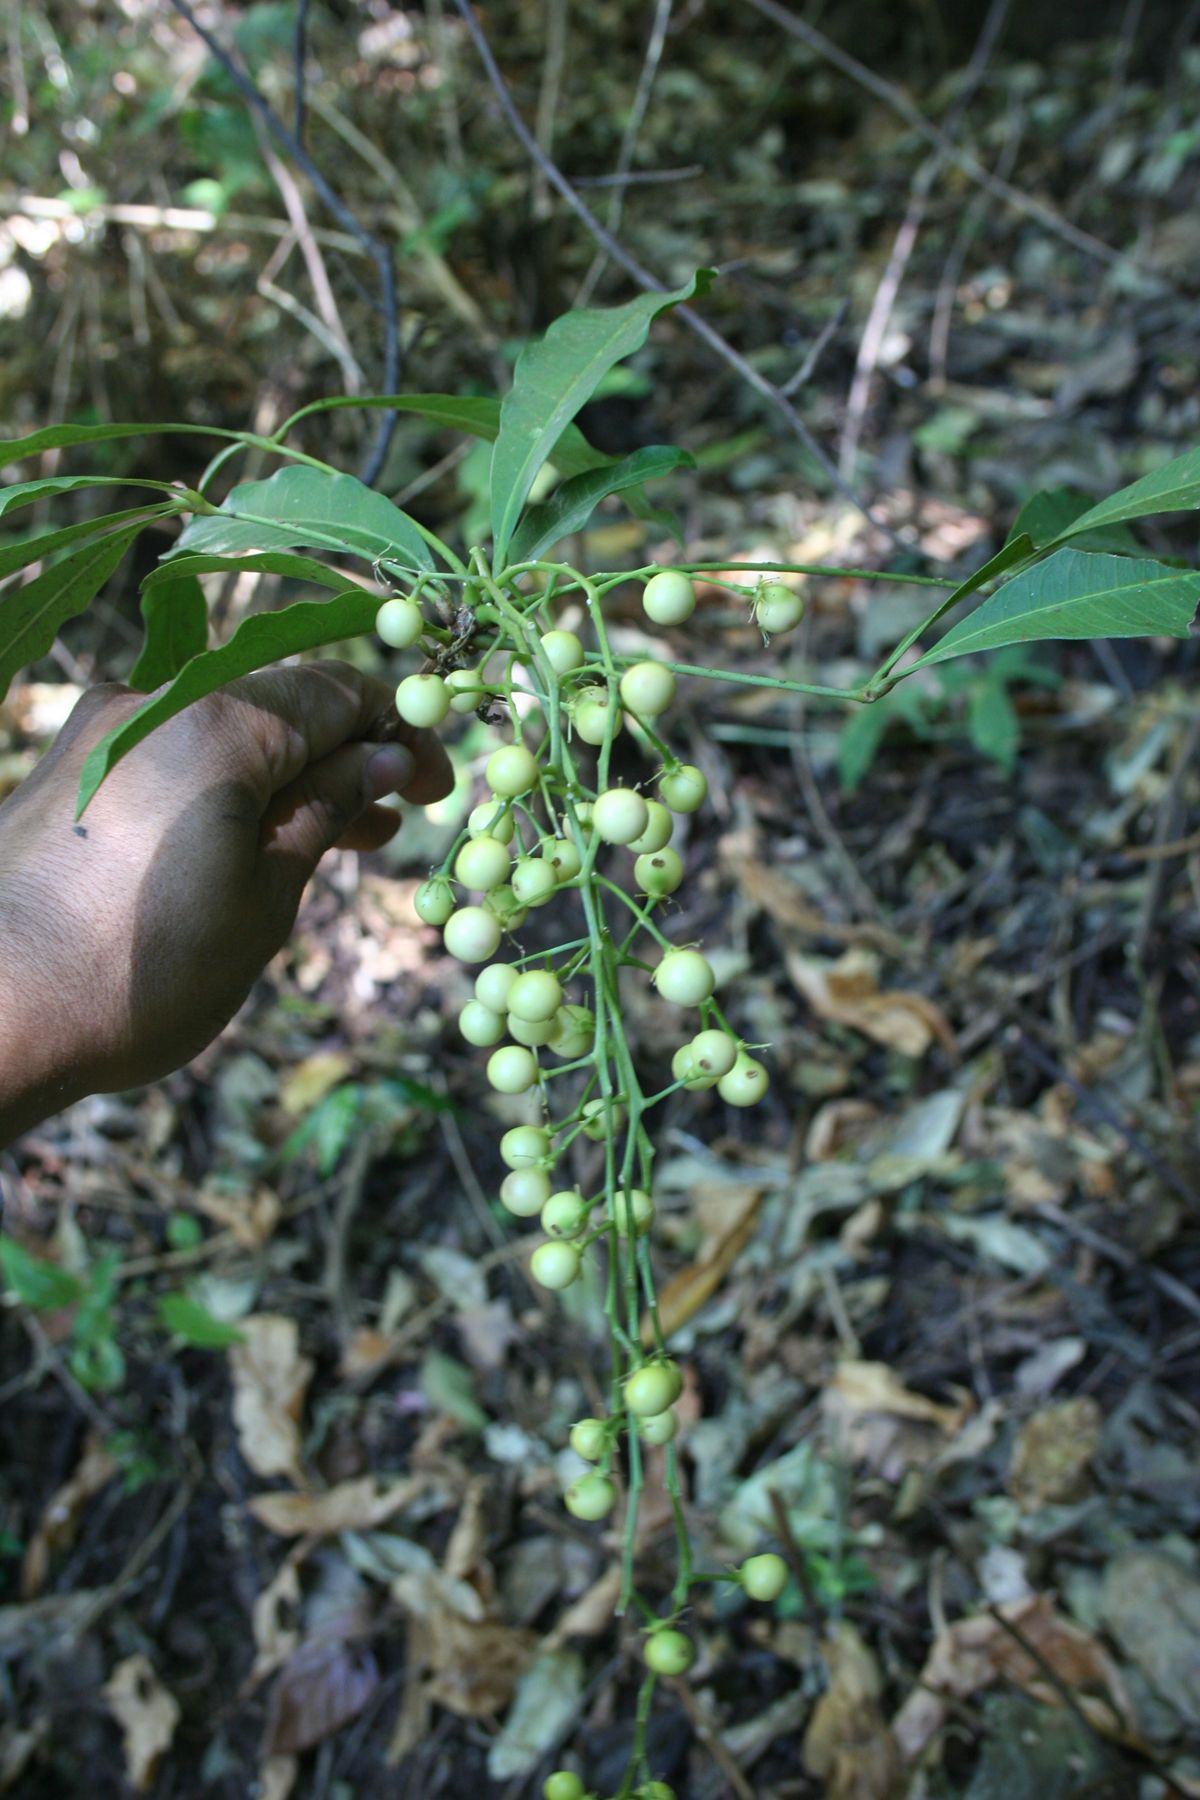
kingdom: Plantae
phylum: Tracheophyta
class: Magnoliopsida
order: Brassicales
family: Stixaceae
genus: Forchhammeria
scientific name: Forchhammeria trifoliata
